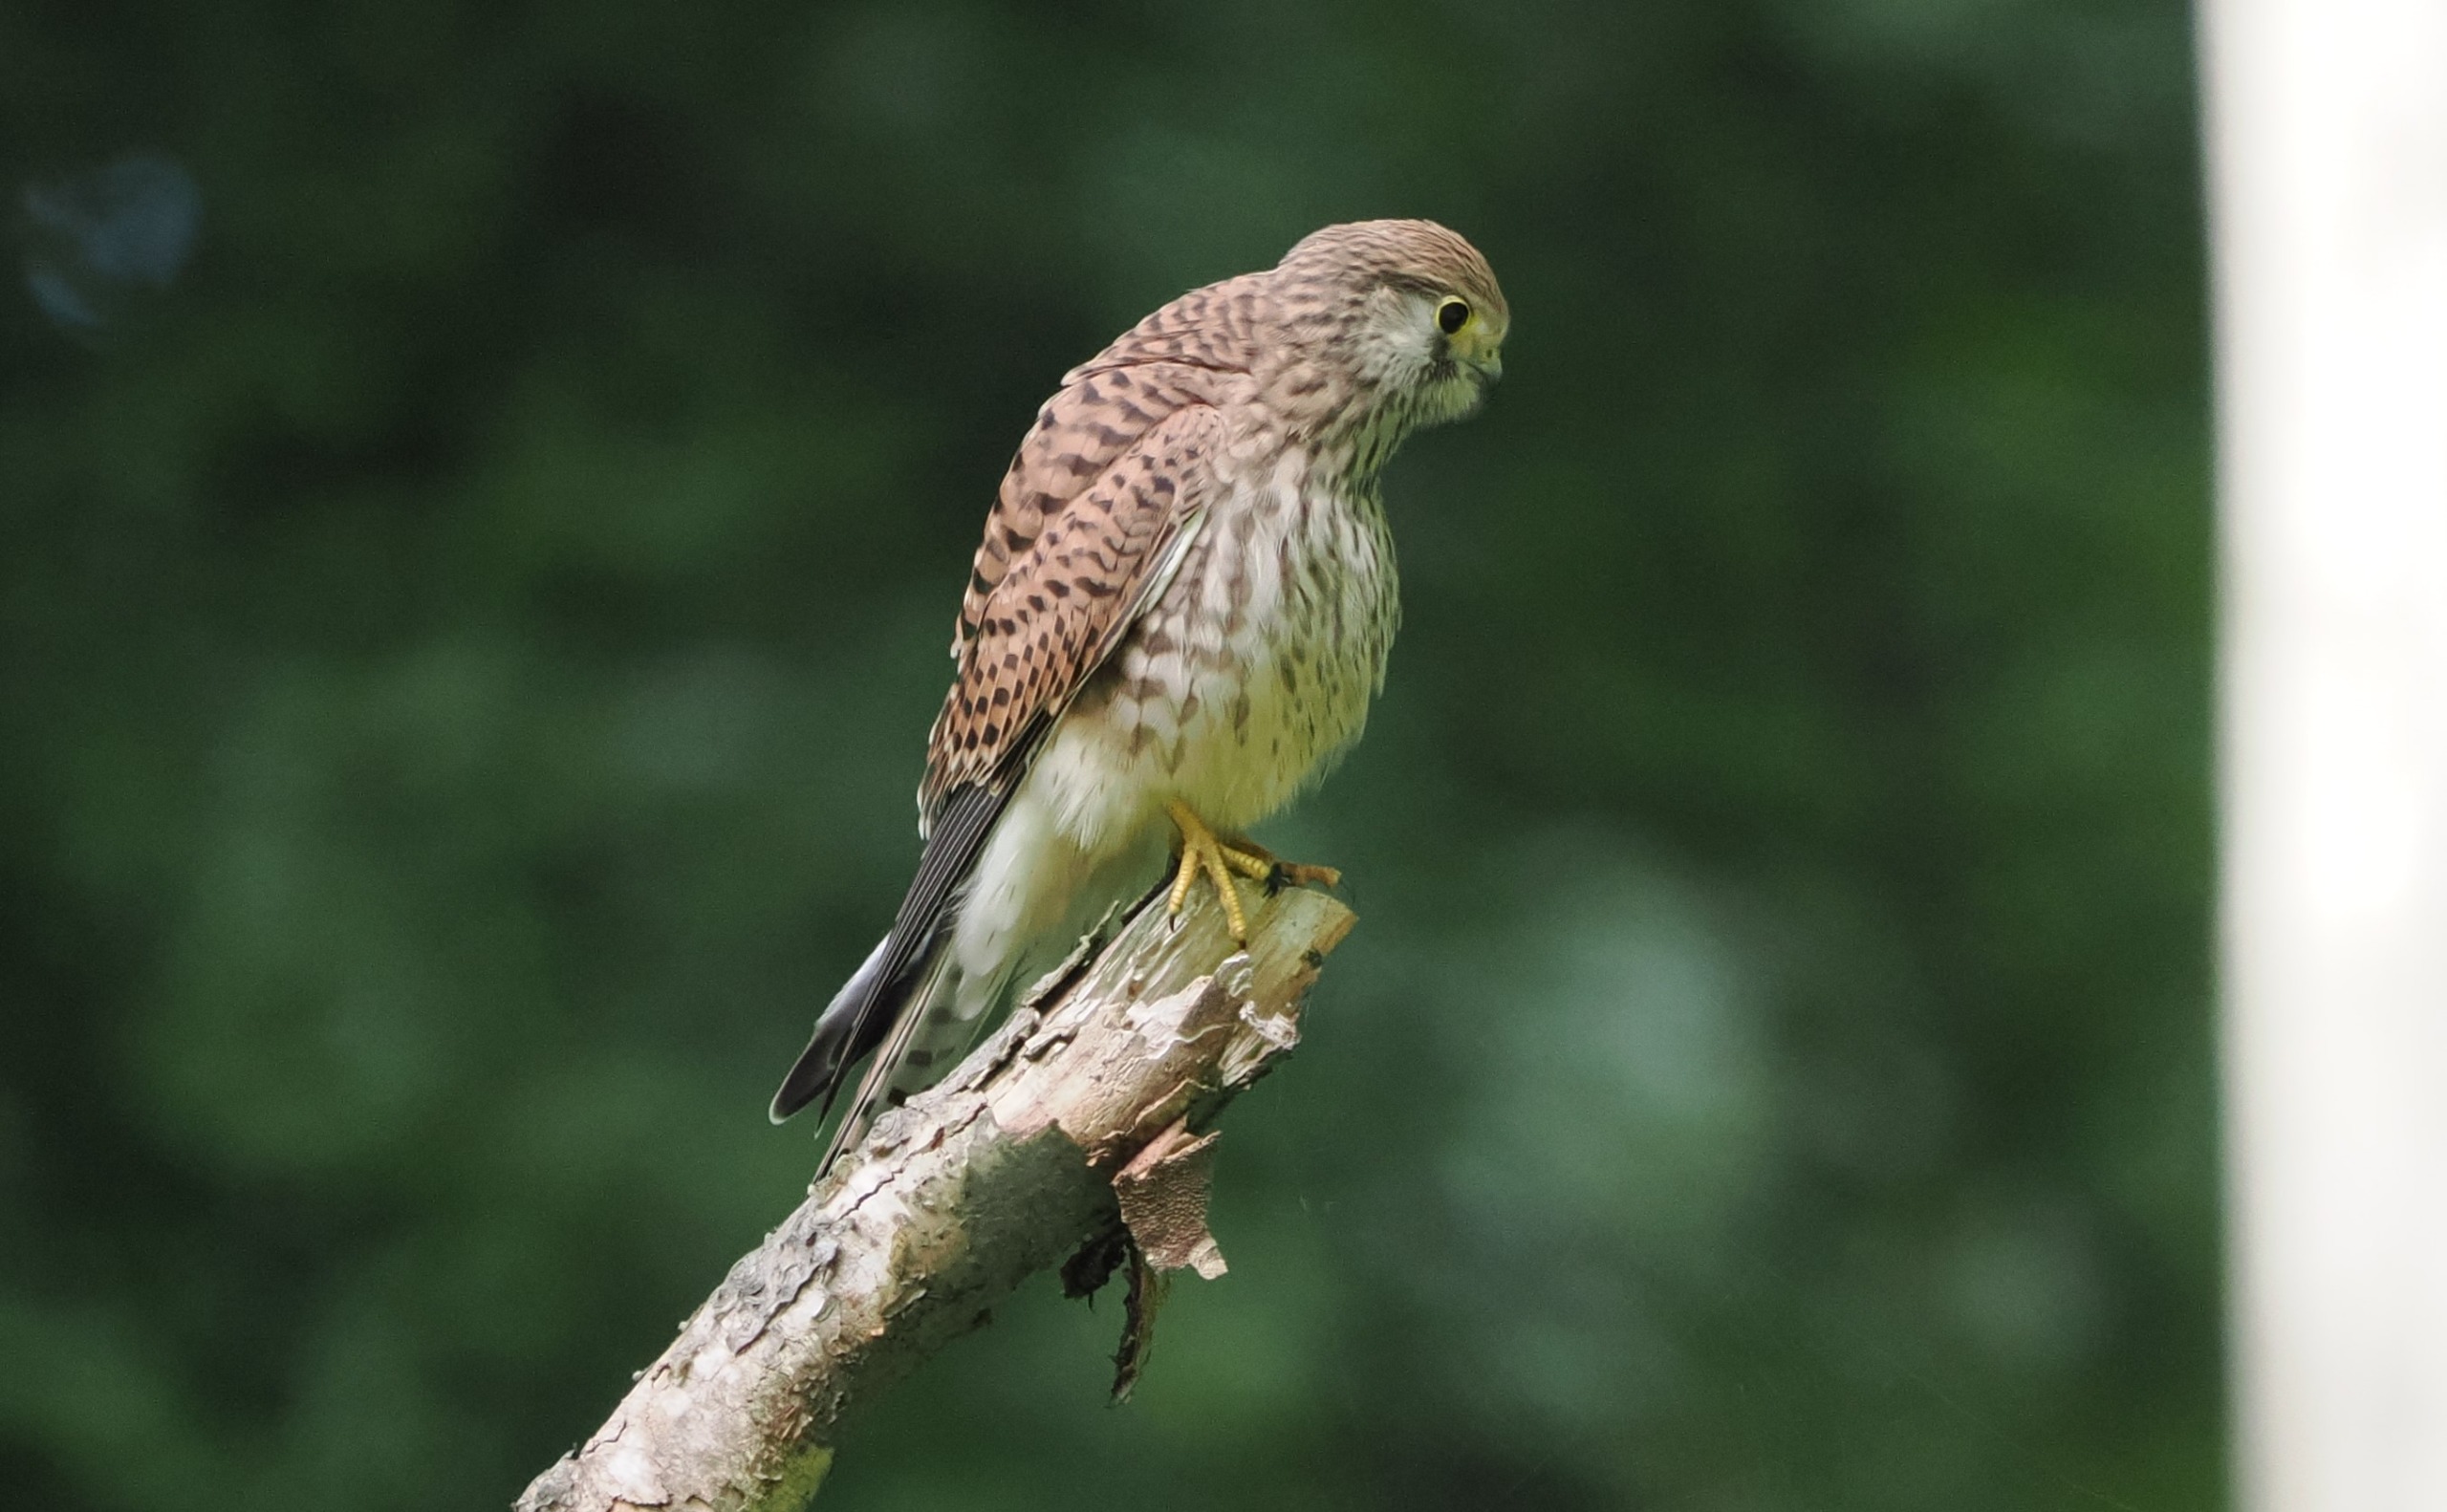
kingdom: Animalia
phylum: Chordata
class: Aves
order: Falconiformes
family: Falconidae
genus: Falco
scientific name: Falco tinnunculus
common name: Tårnfalk
